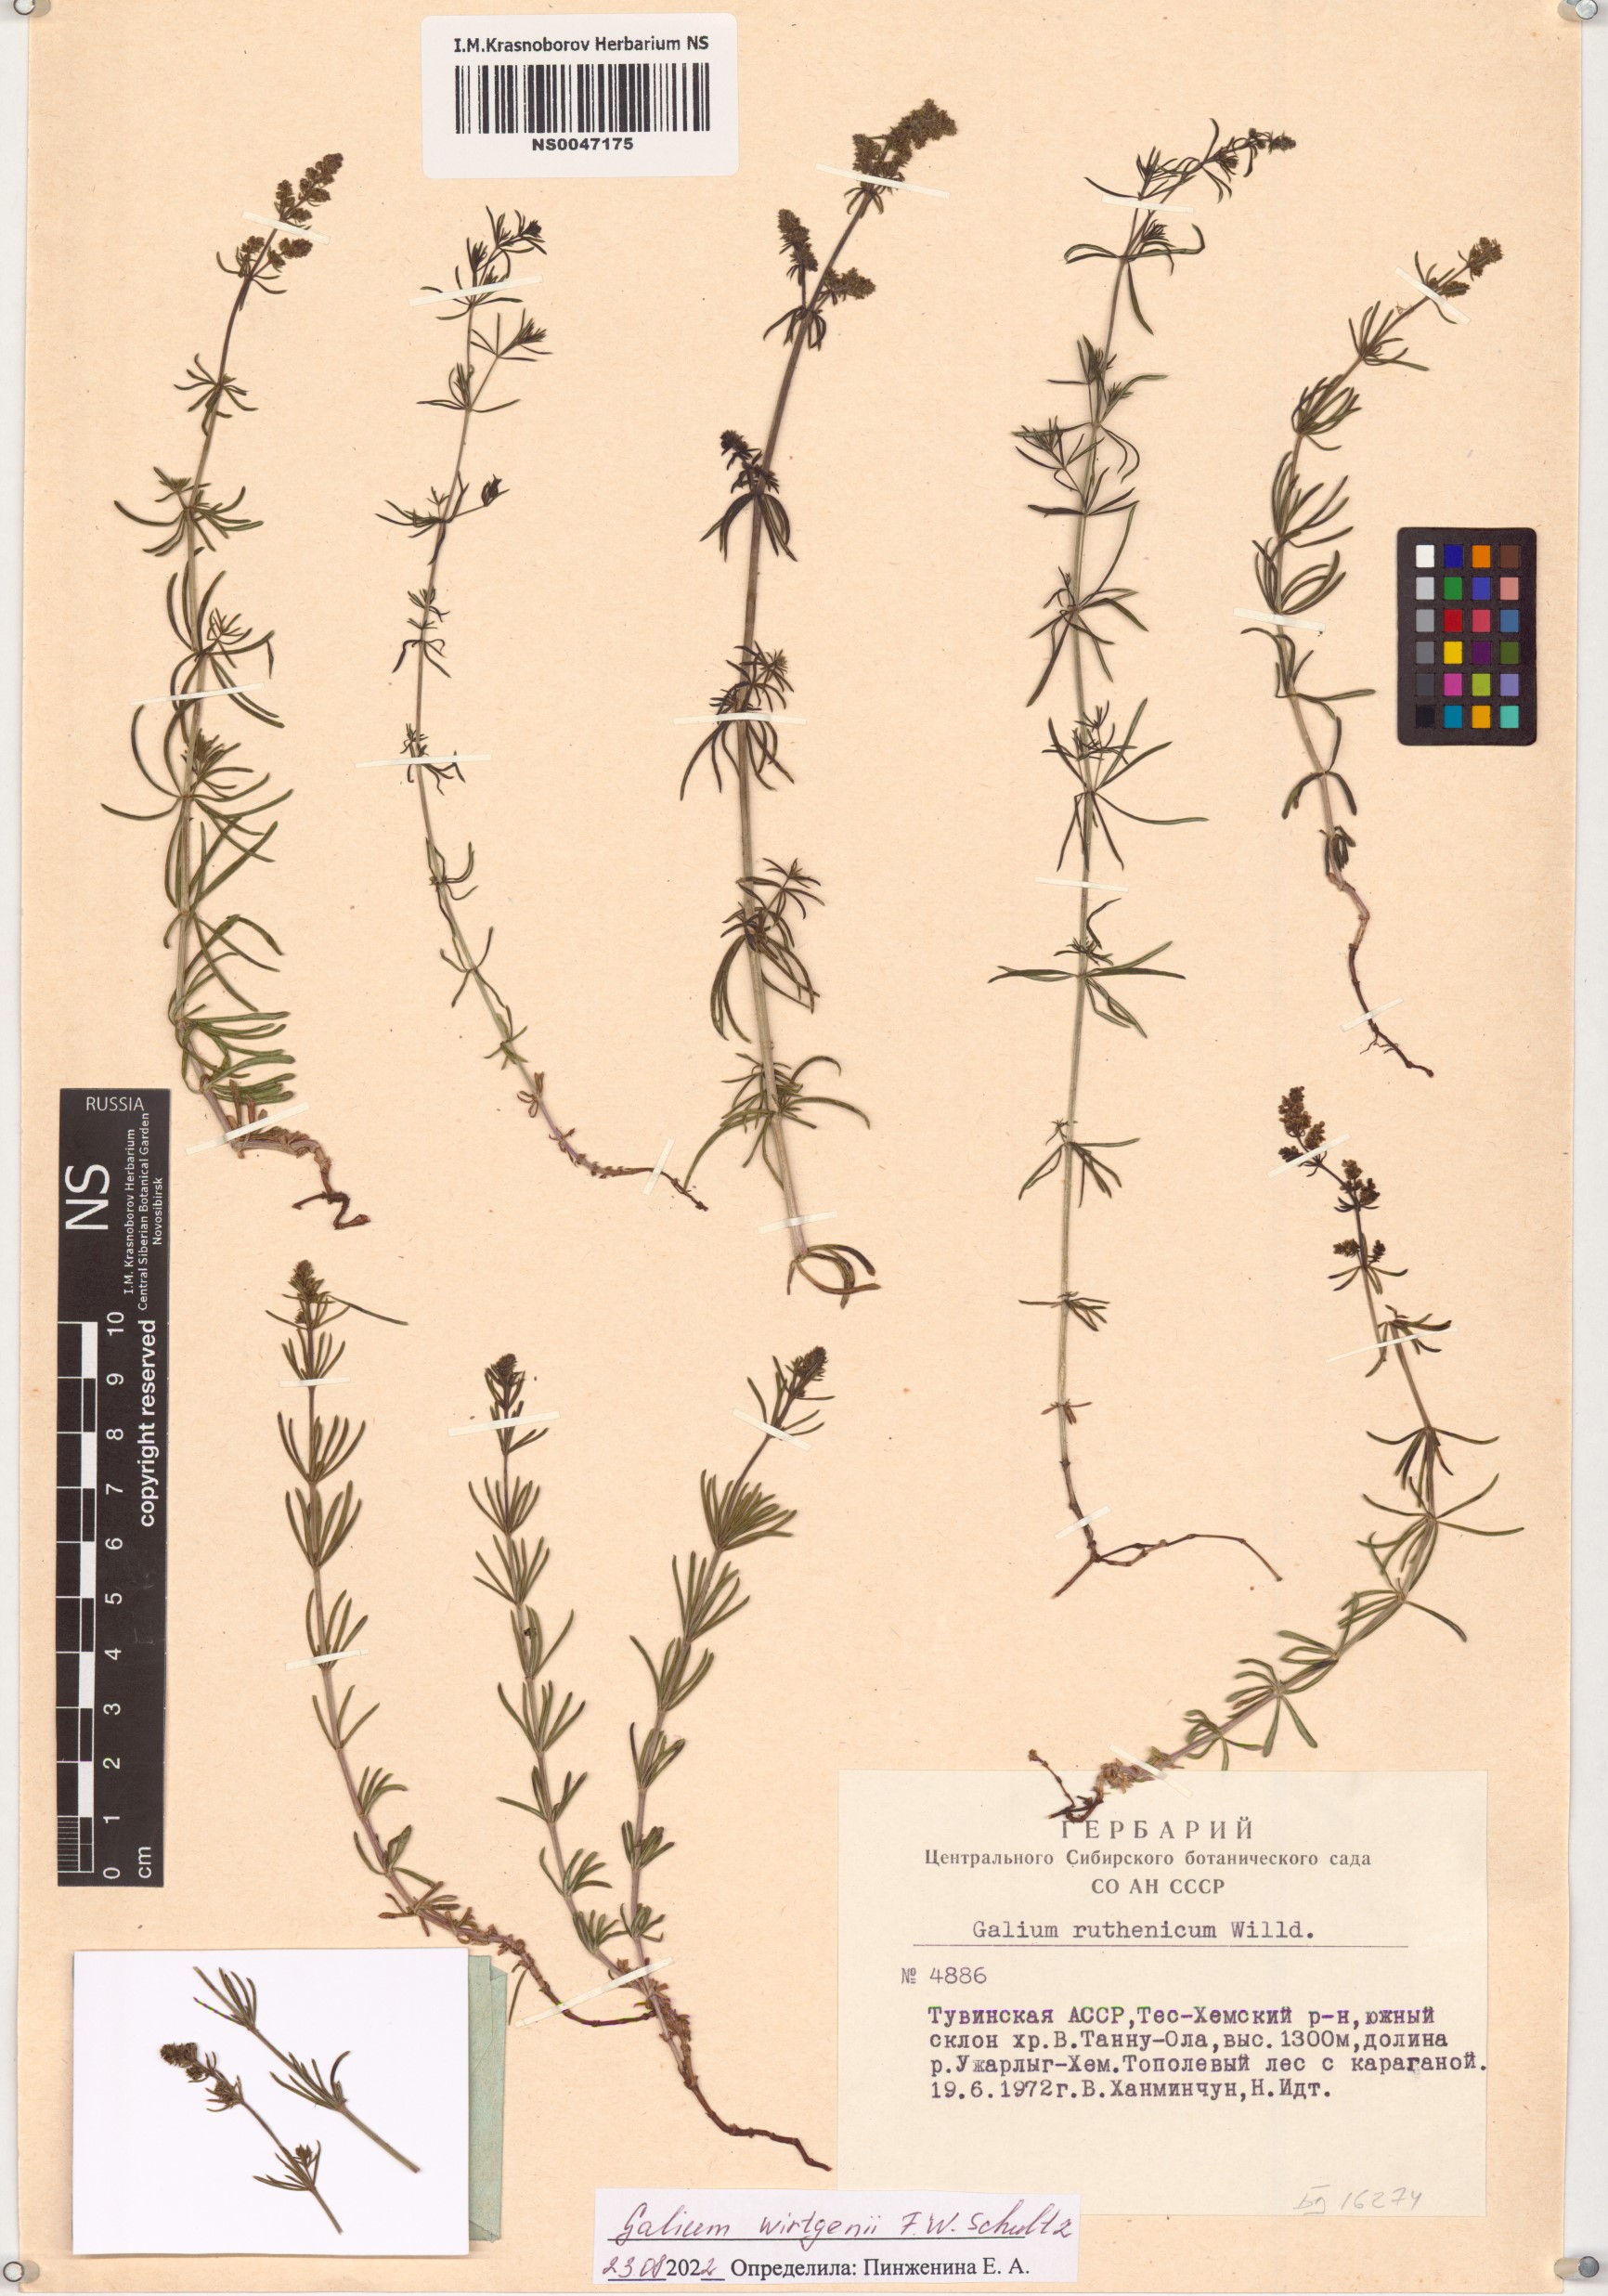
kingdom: Plantae
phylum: Tracheophyta
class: Magnoliopsida
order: Gentianales
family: Rubiaceae
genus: Galium
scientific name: Galium verum
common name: Lady's bedstraw
